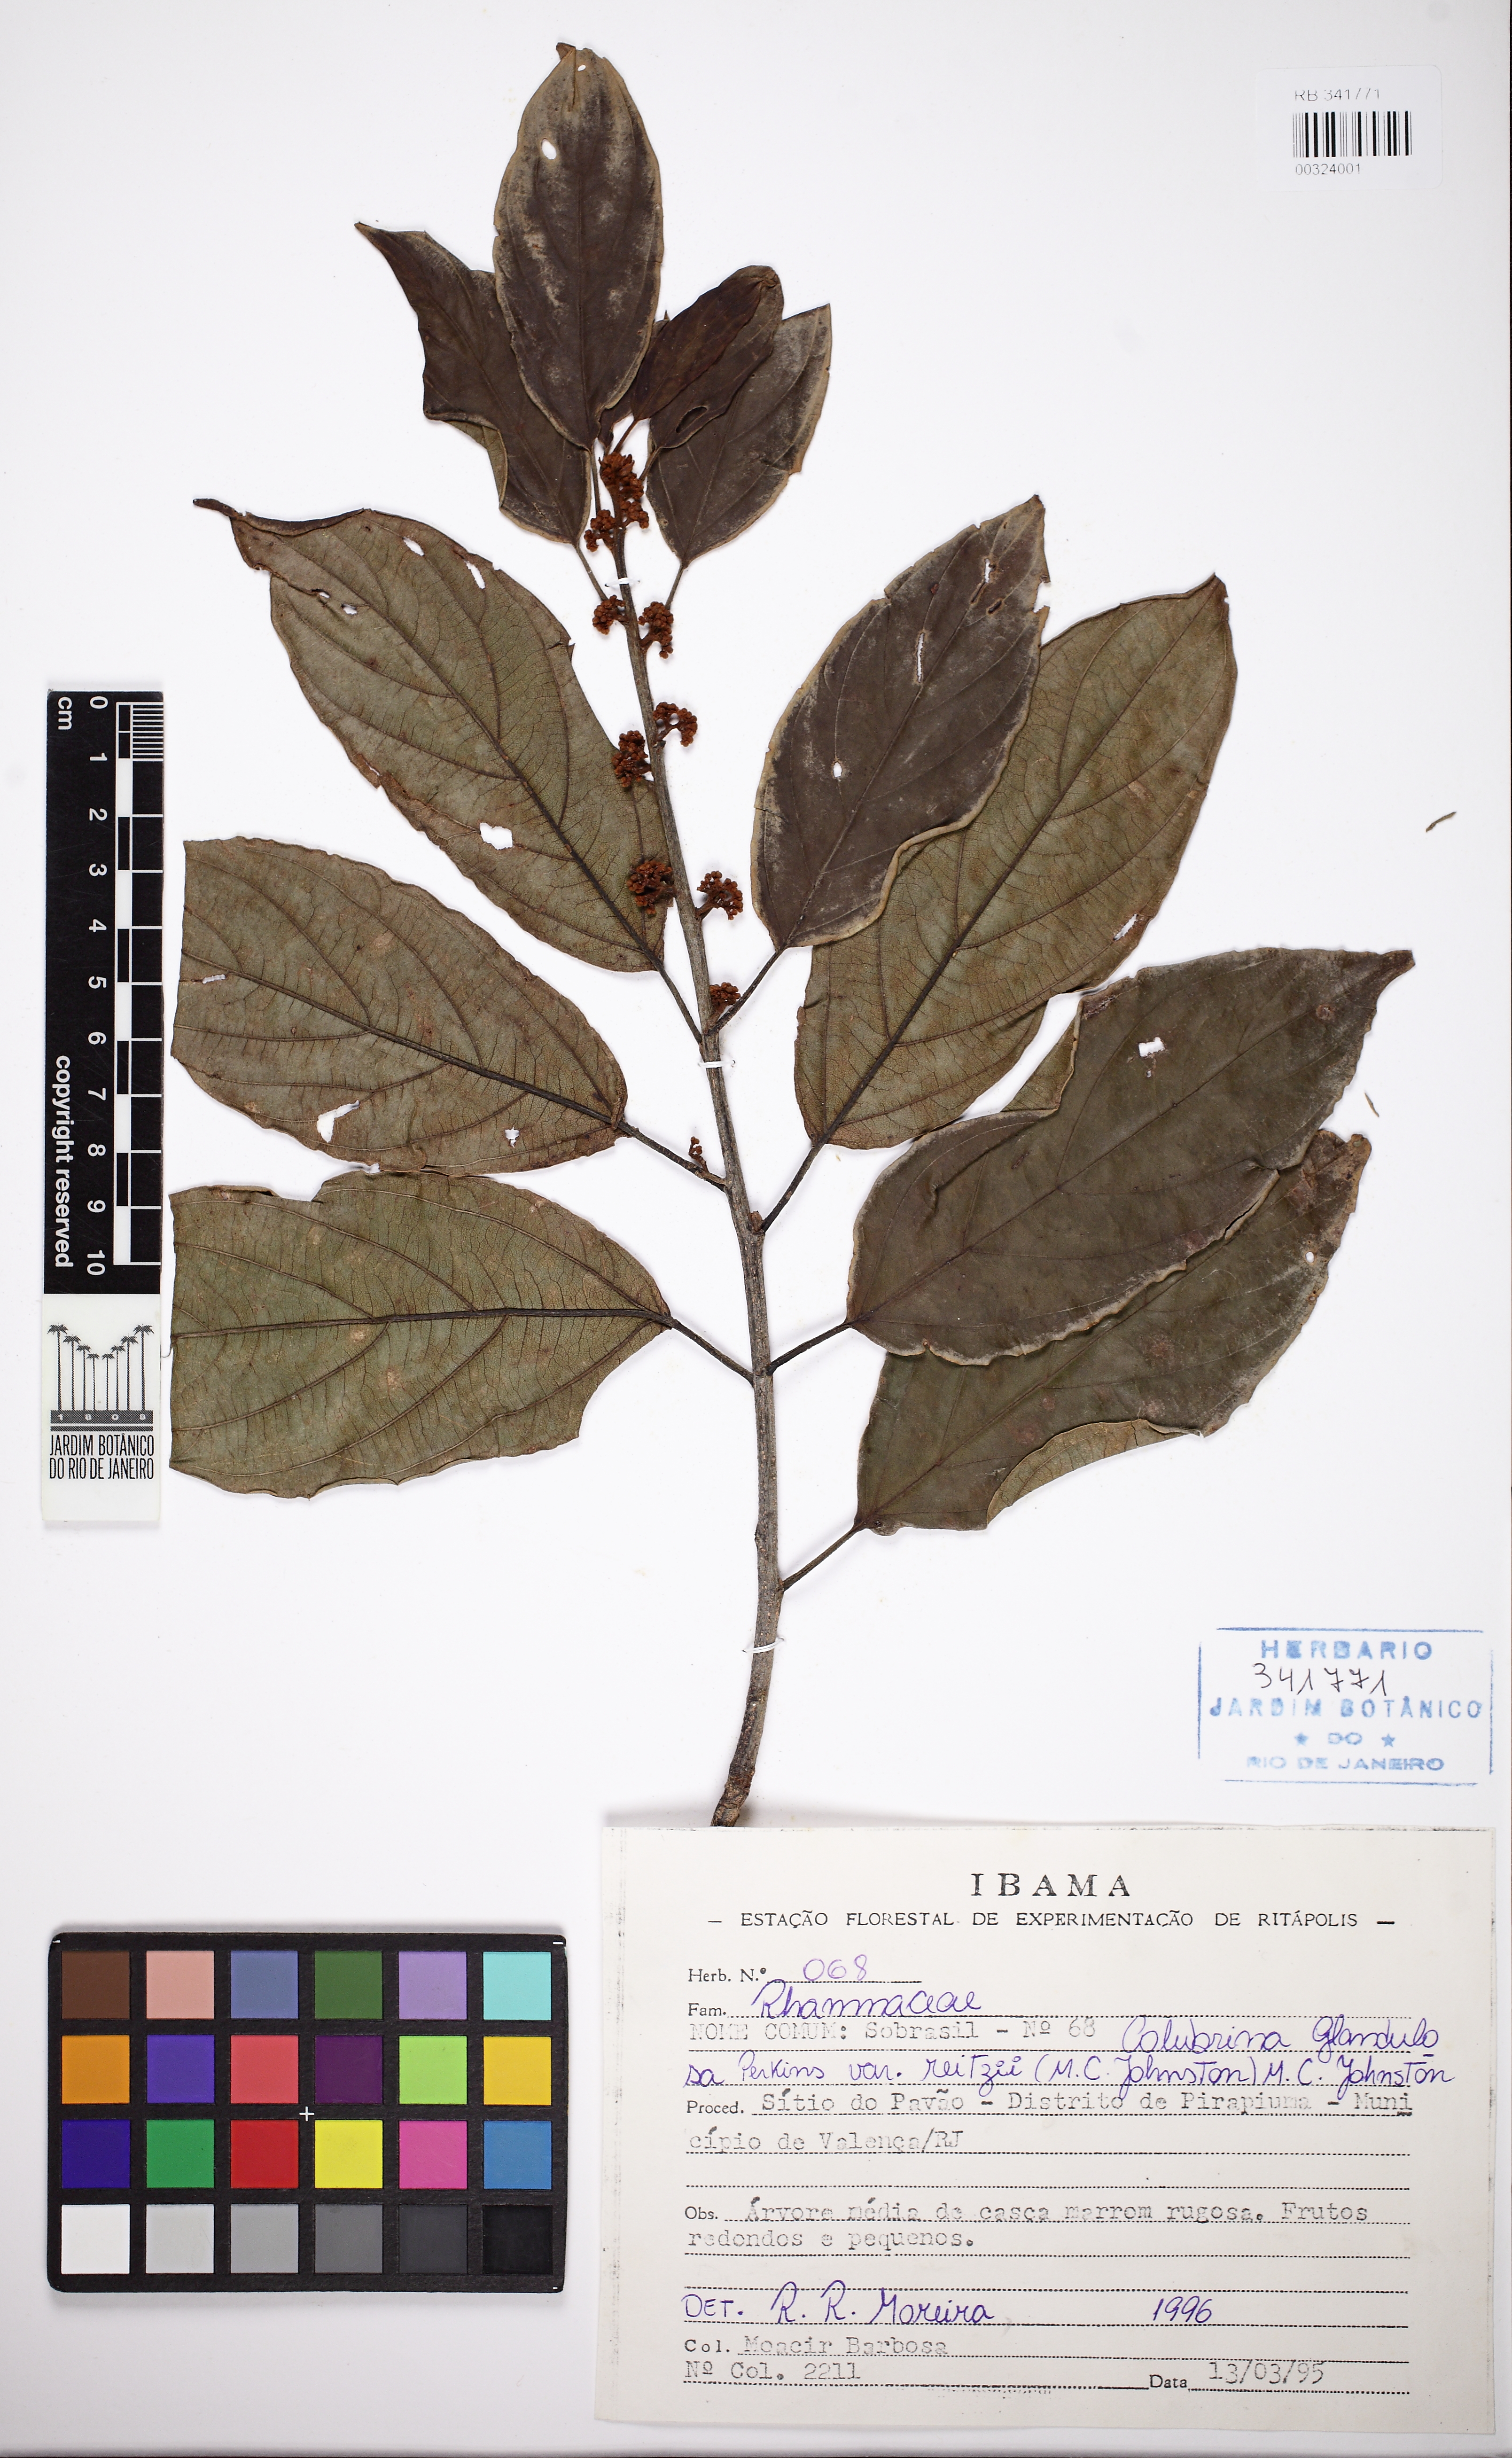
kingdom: Plantae
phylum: Tracheophyta
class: Magnoliopsida
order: Rosales
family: Rhamnaceae
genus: Colubrina
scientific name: Colubrina glandulosa
